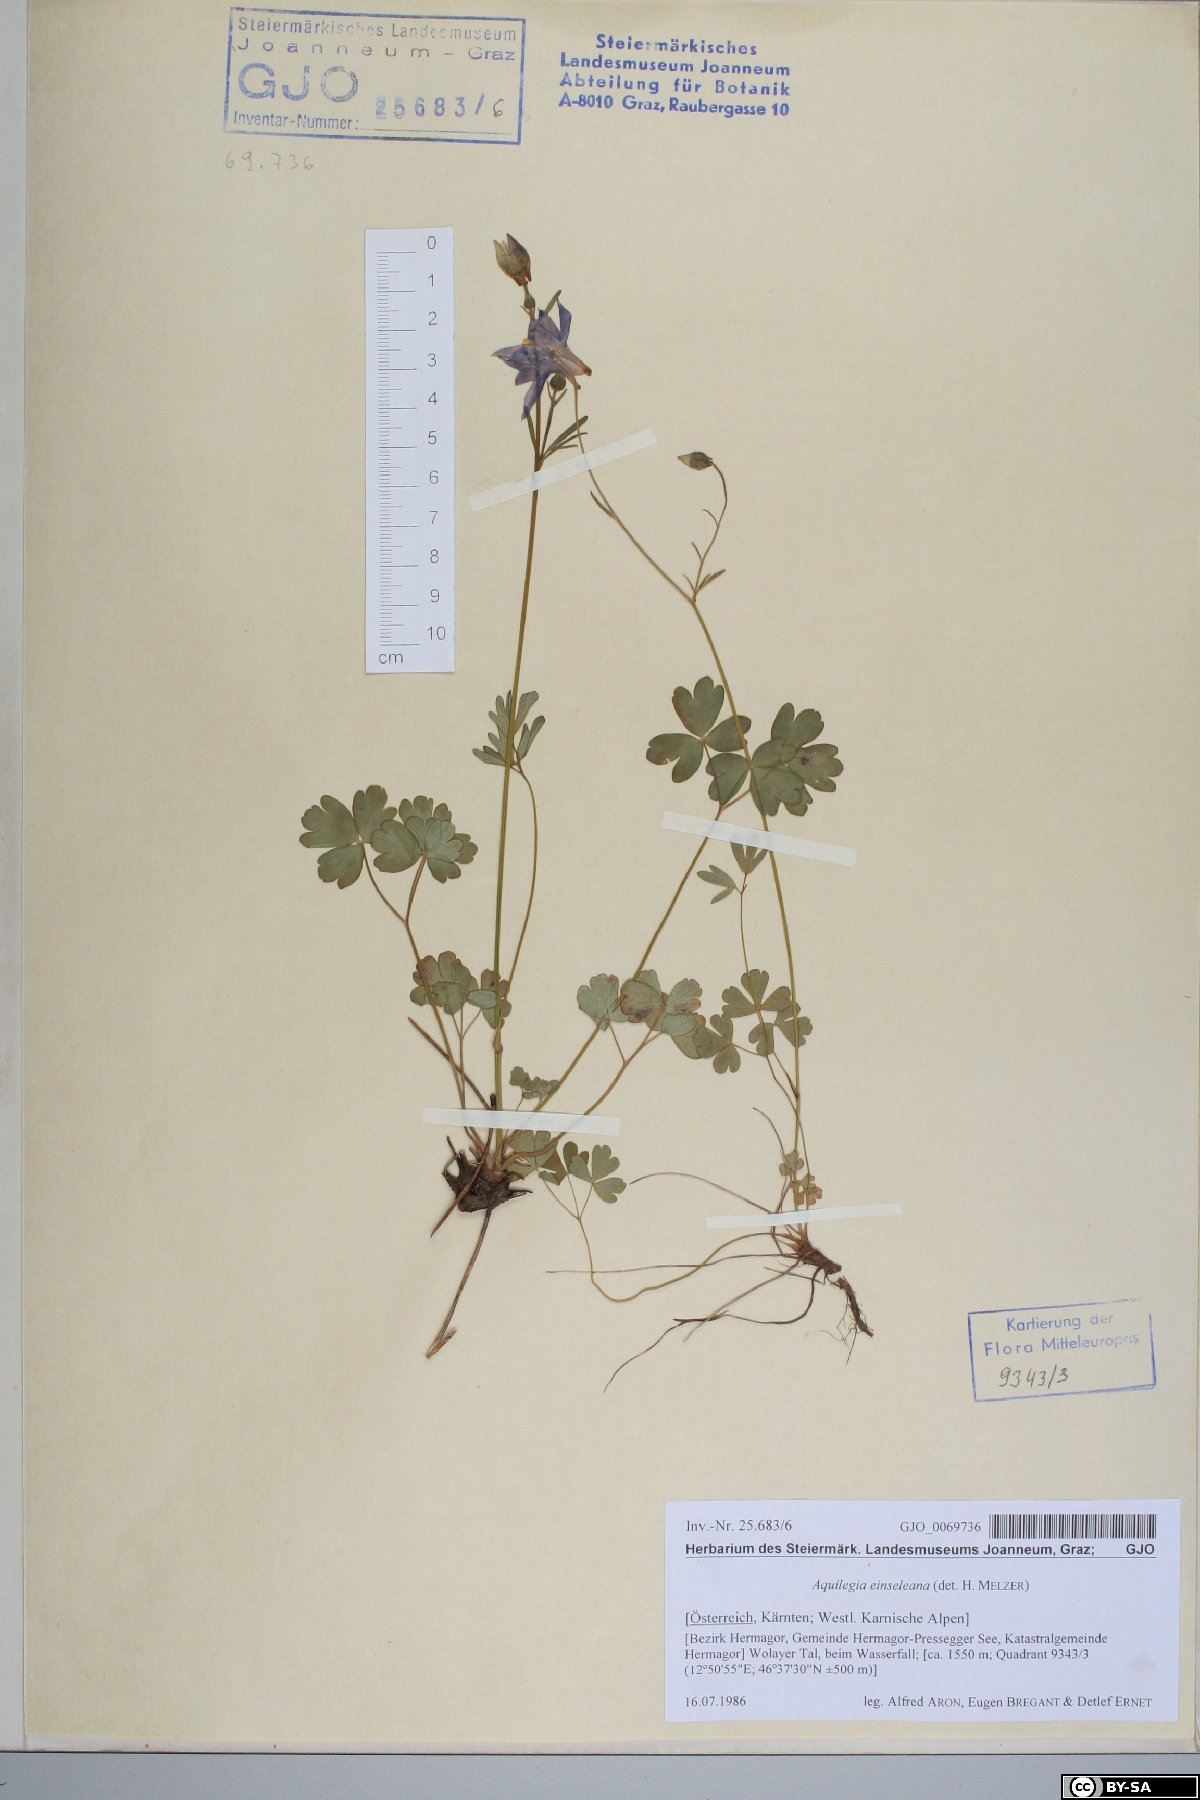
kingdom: Plantae
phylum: Tracheophyta
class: Magnoliopsida
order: Ranunculales
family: Ranunculaceae
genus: Aquilegia
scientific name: Aquilegia einseleana
